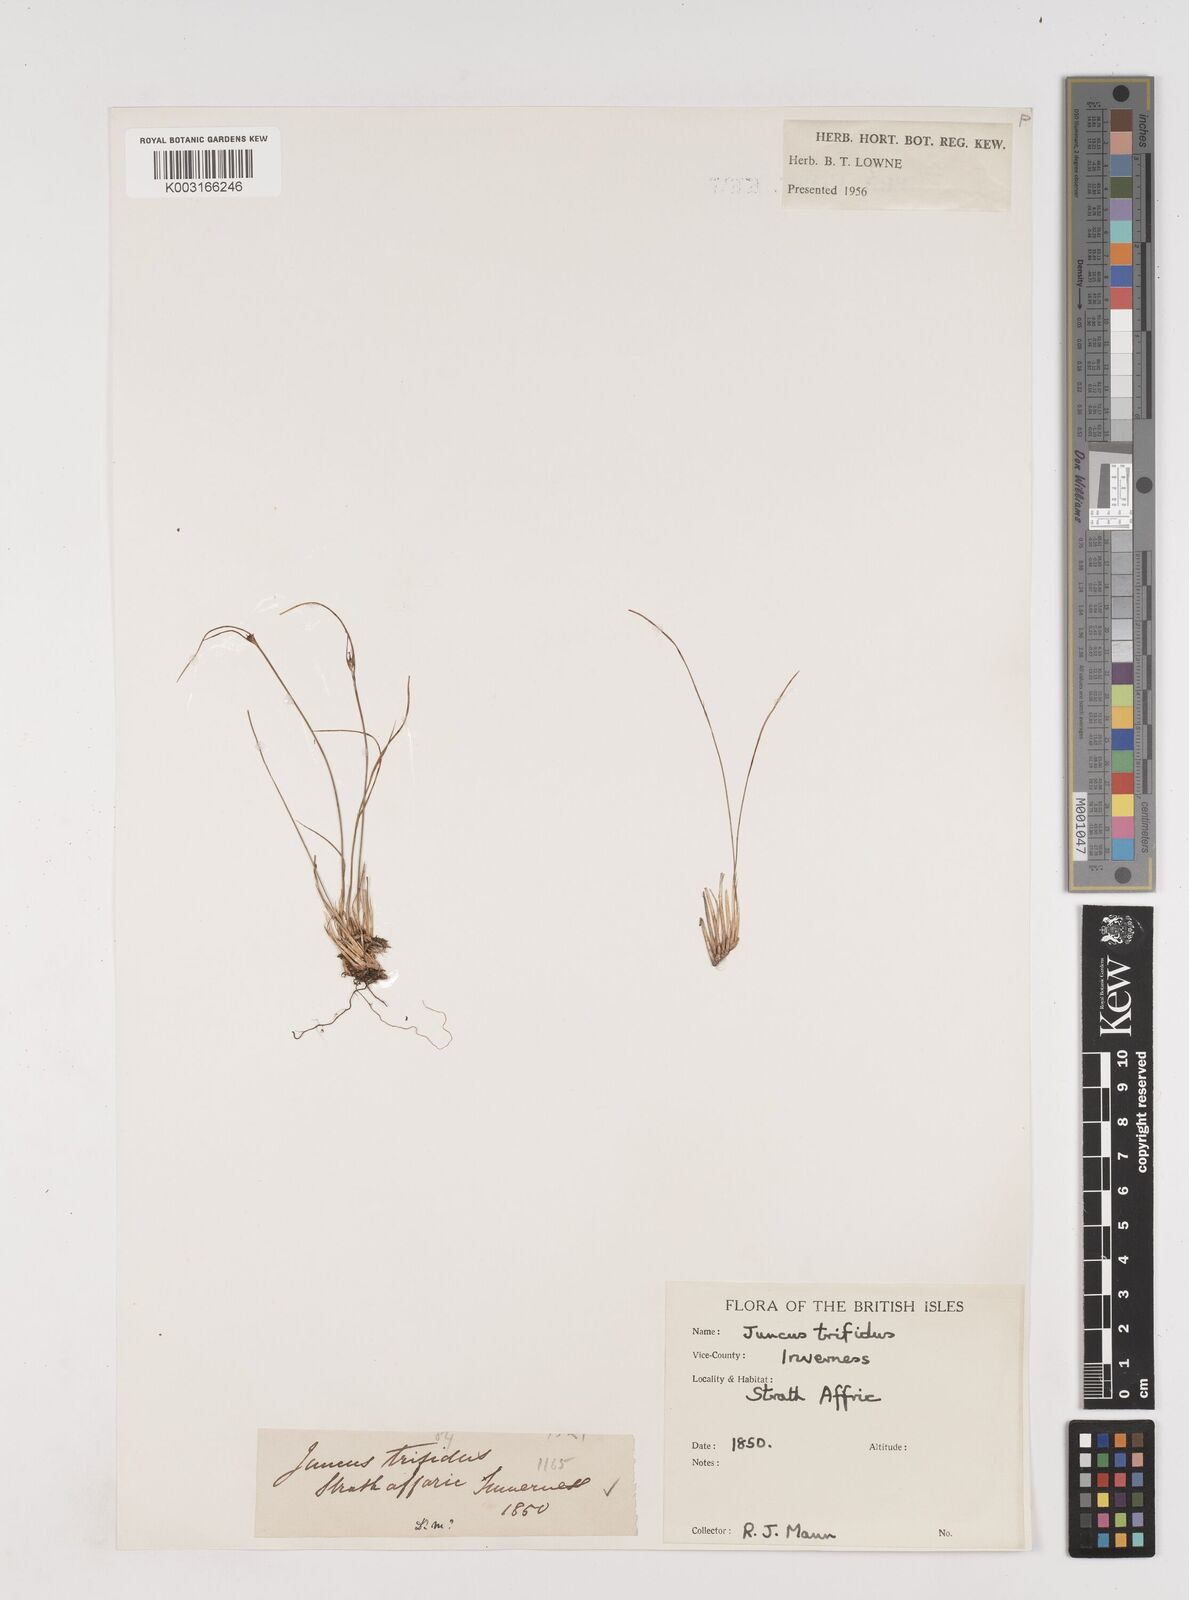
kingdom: Plantae
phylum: Tracheophyta
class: Liliopsida
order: Poales
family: Juncaceae
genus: Oreojuncus
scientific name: Oreojuncus trifidus
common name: Highland rush
